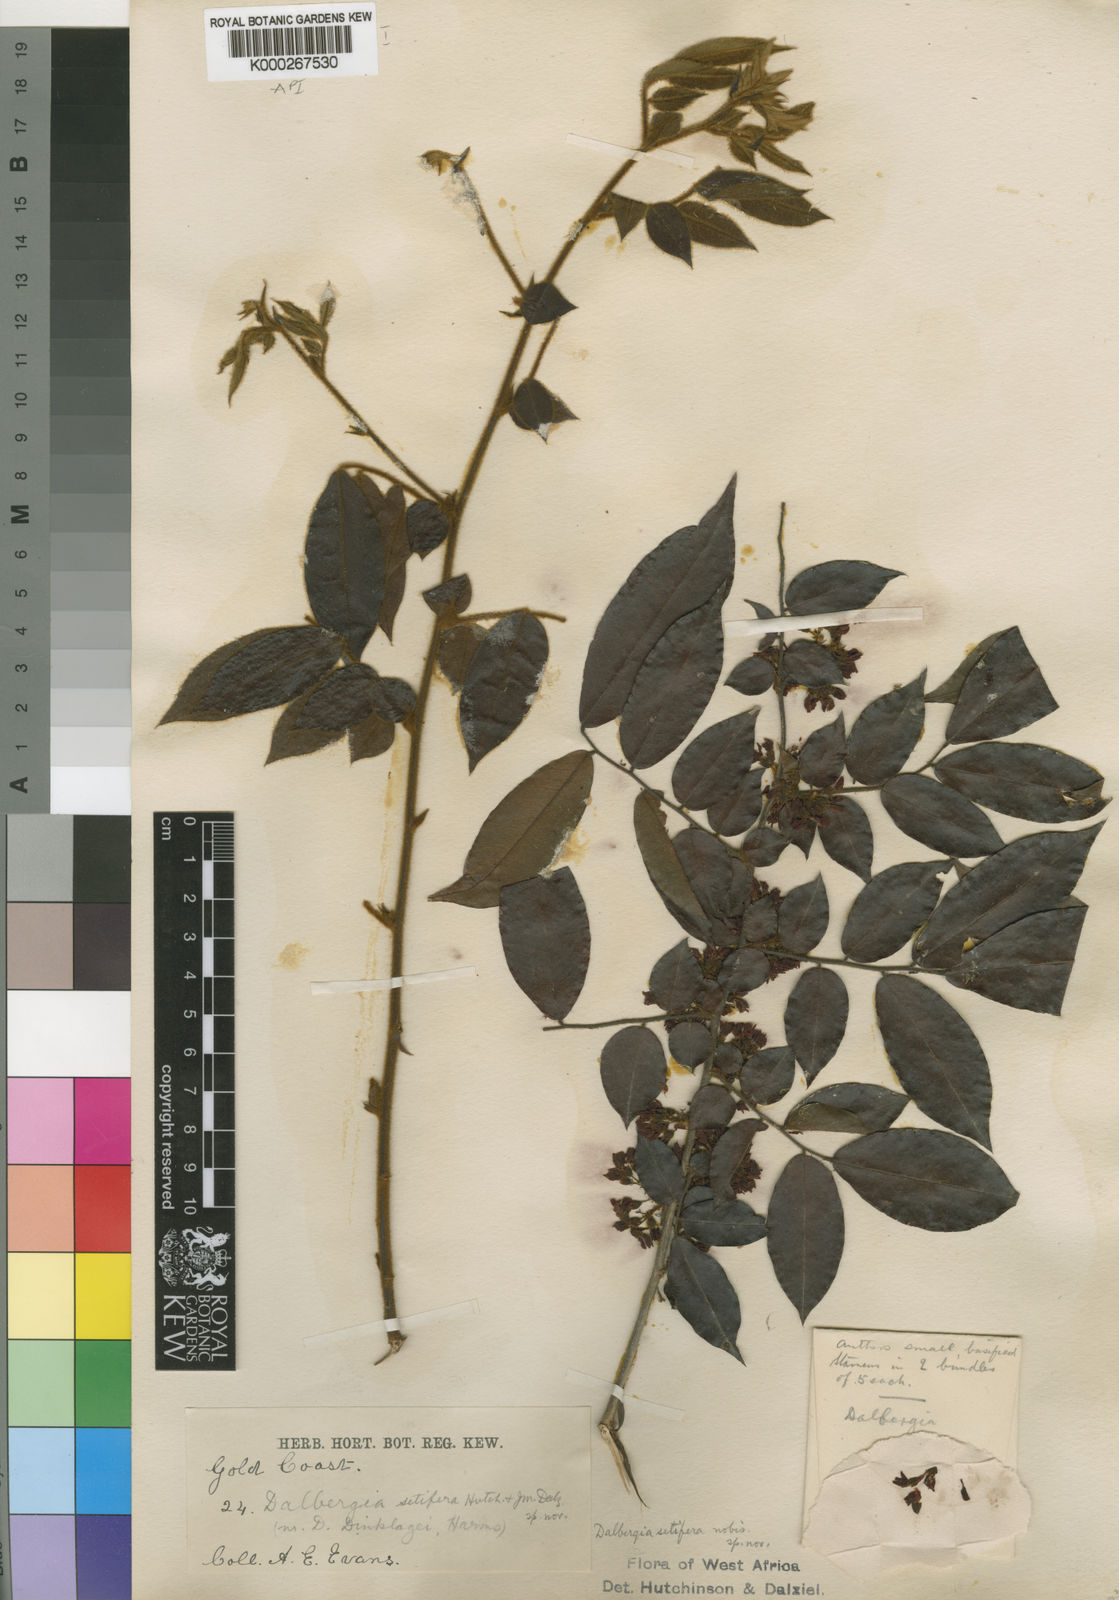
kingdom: Plantae
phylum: Tracheophyta
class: Magnoliopsida
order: Fabales
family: Fabaceae
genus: Dalbergia
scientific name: Dalbergia setifera
